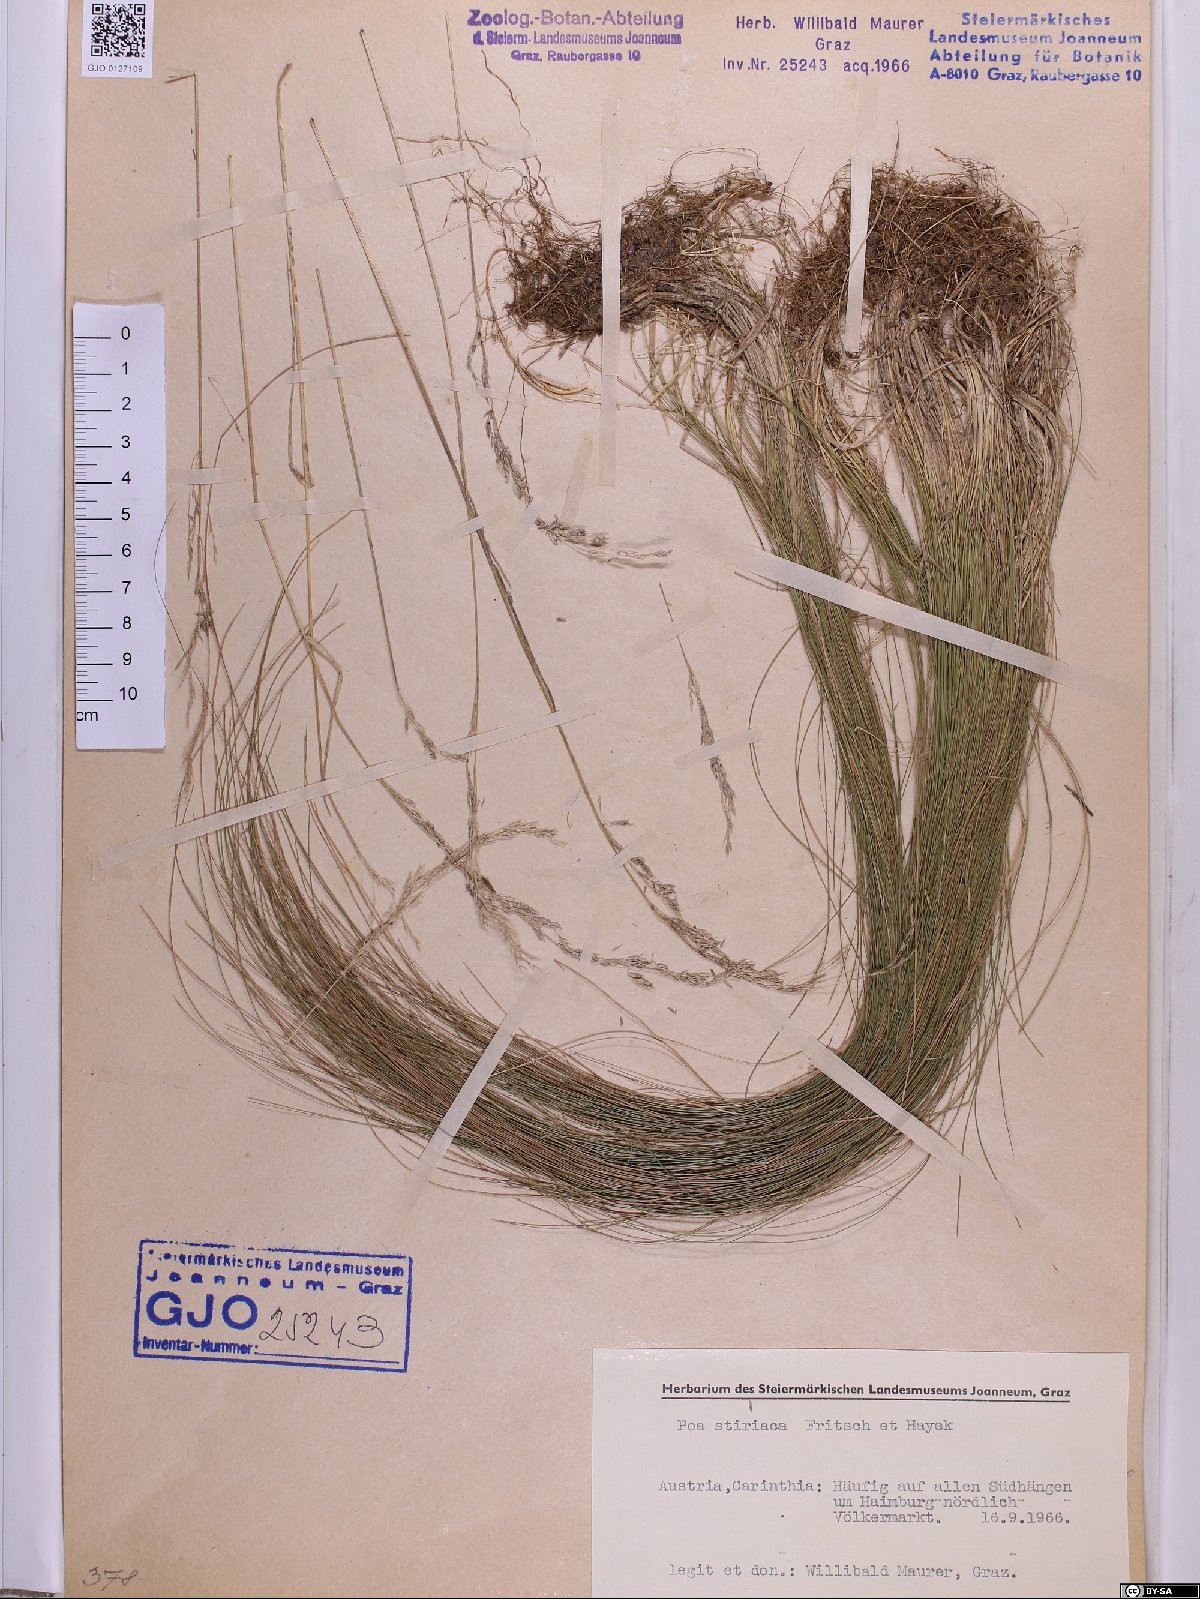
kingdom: Plantae
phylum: Tracheophyta
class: Liliopsida
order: Poales
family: Poaceae
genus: Poa
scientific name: Poa stiriaca
